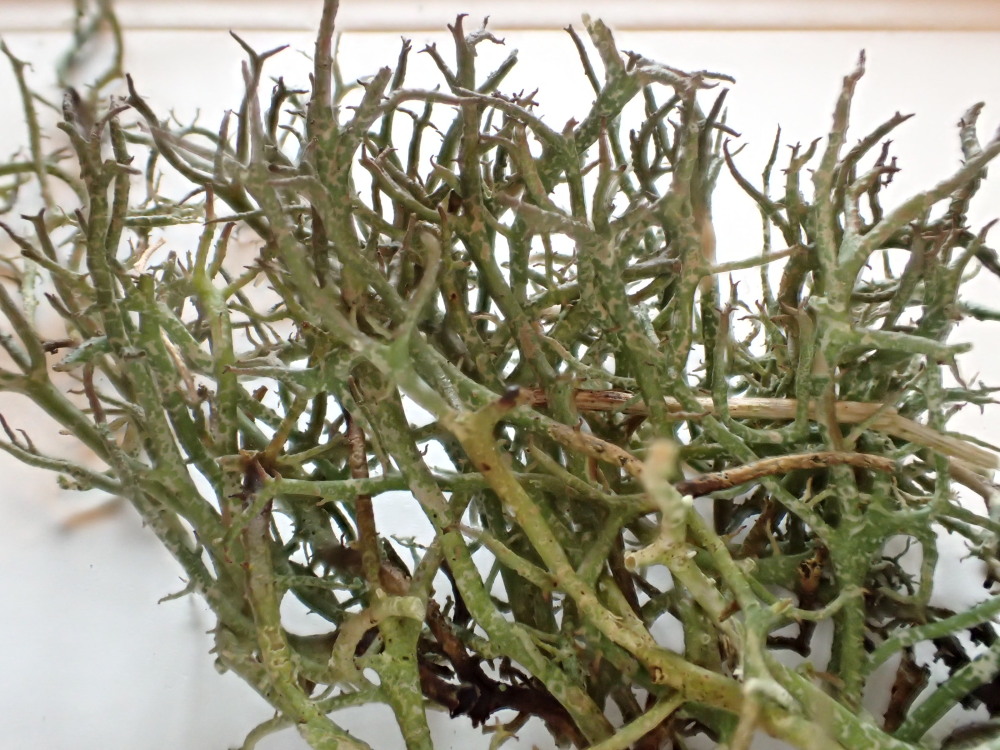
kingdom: Fungi
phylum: Ascomycota
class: Lecanoromycetes
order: Lecanorales
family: Cladoniaceae
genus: Cladonia
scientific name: Cladonia furcata
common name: kløftet bægerlav
